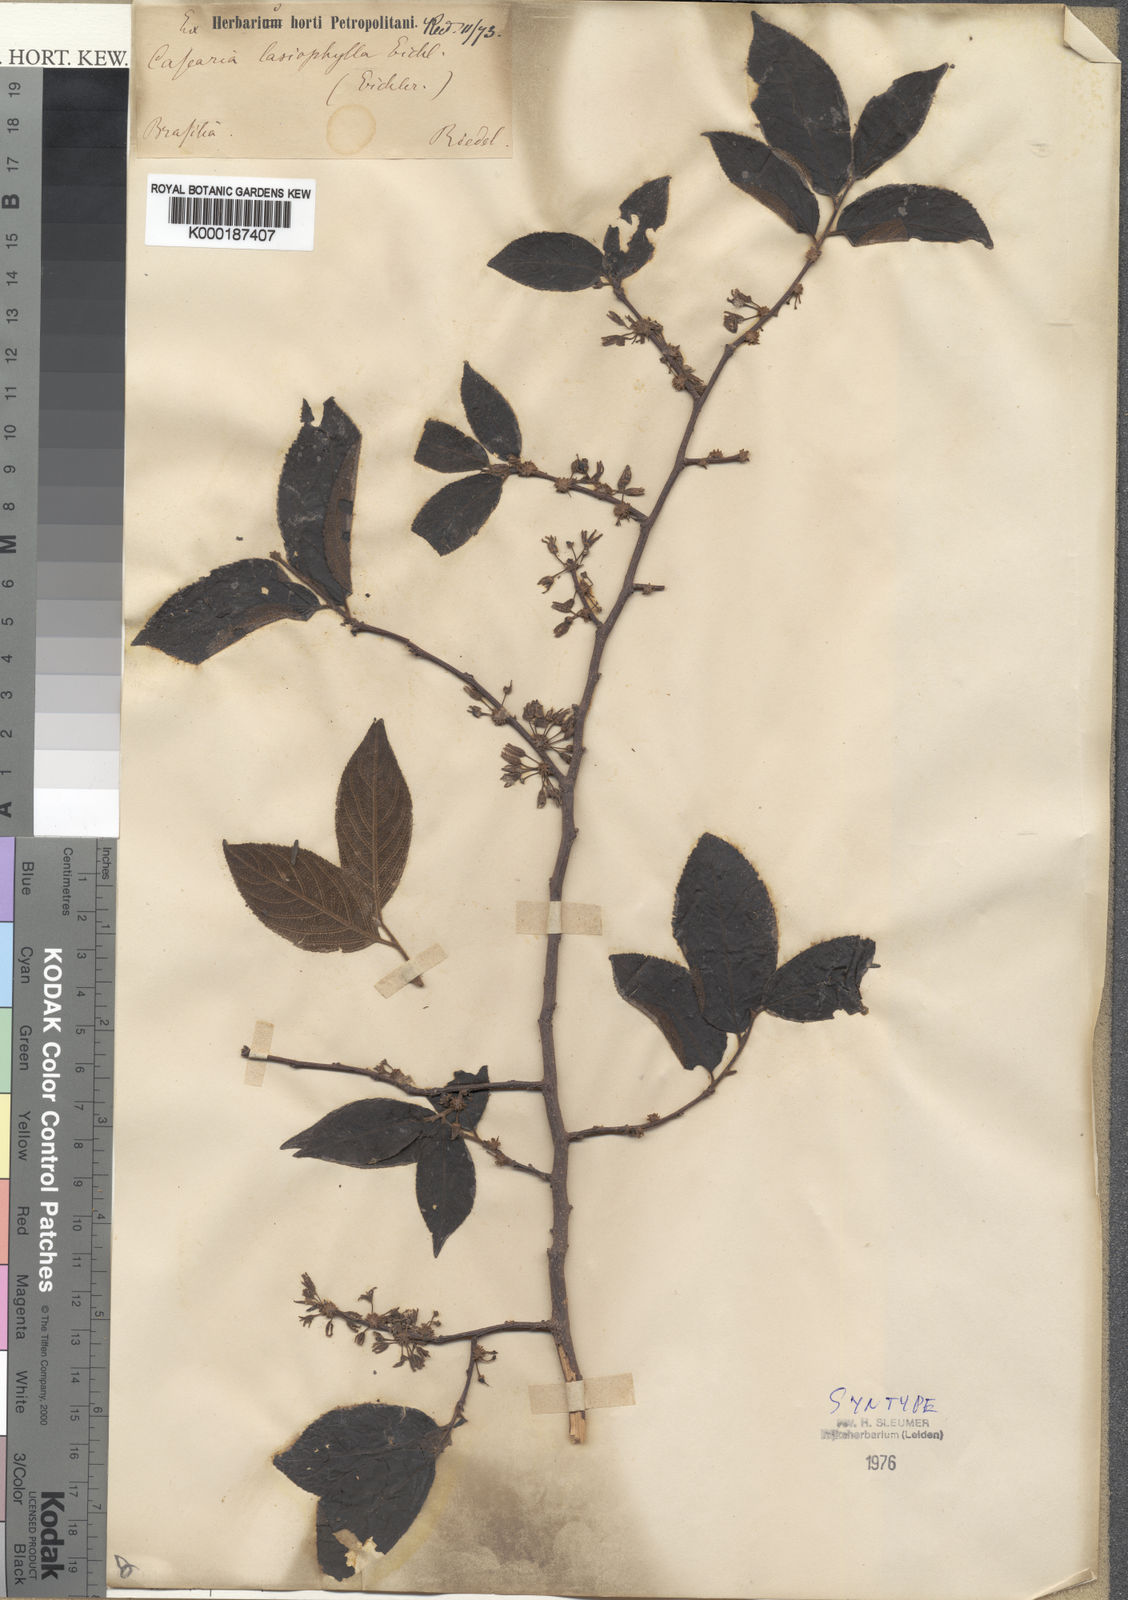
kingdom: Plantae
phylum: Tracheophyta
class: Magnoliopsida
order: Malpighiales
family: Salicaceae
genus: Casearia
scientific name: Casearia lasiophylla
